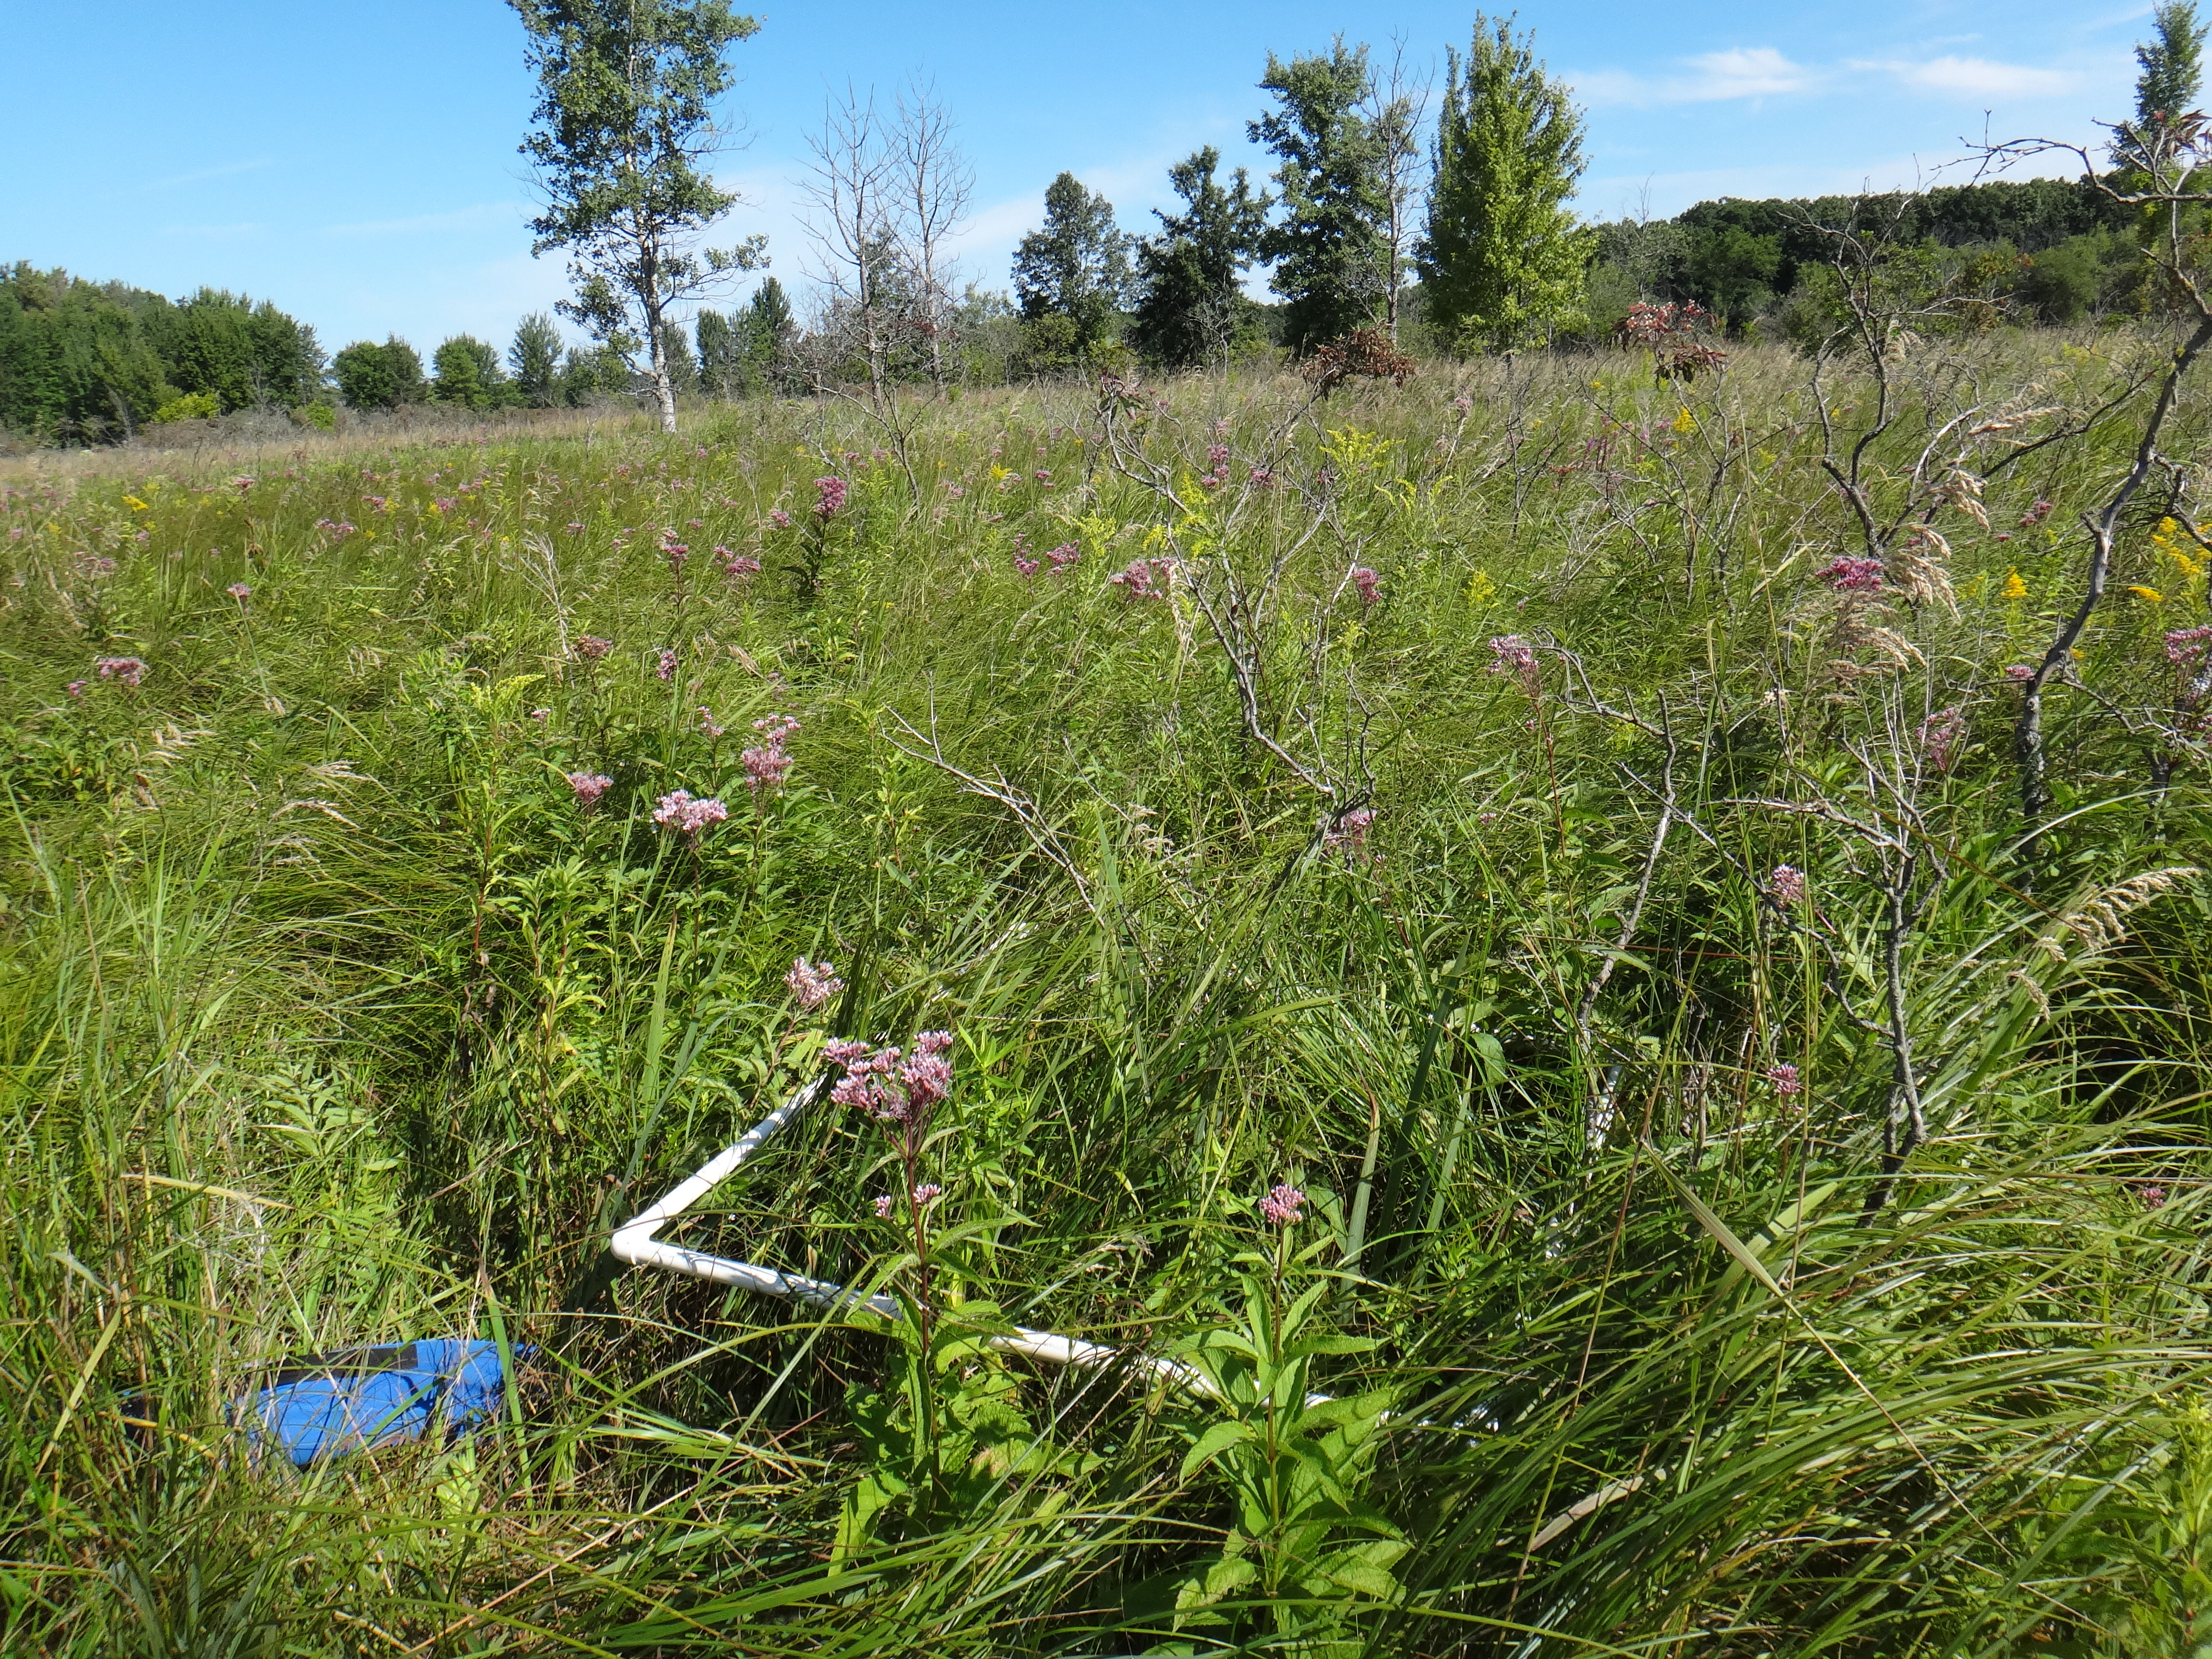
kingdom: Plantae
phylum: Tracheophyta
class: Magnoliopsida
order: Asterales
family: Asteraceae
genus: Eutrochium
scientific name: Eutrochium maculatum
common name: Spotted joe pye weed
